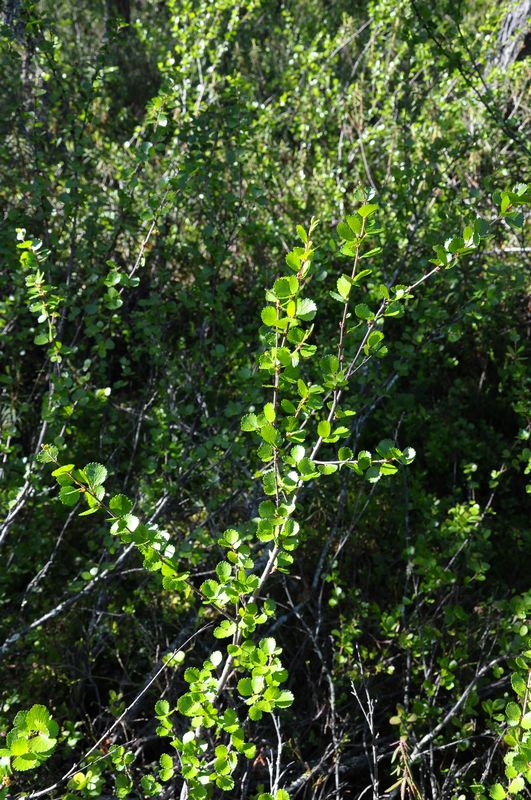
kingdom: Plantae
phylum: Tracheophyta
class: Magnoliopsida
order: Fagales
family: Betulaceae
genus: Betula
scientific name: Betula nana
